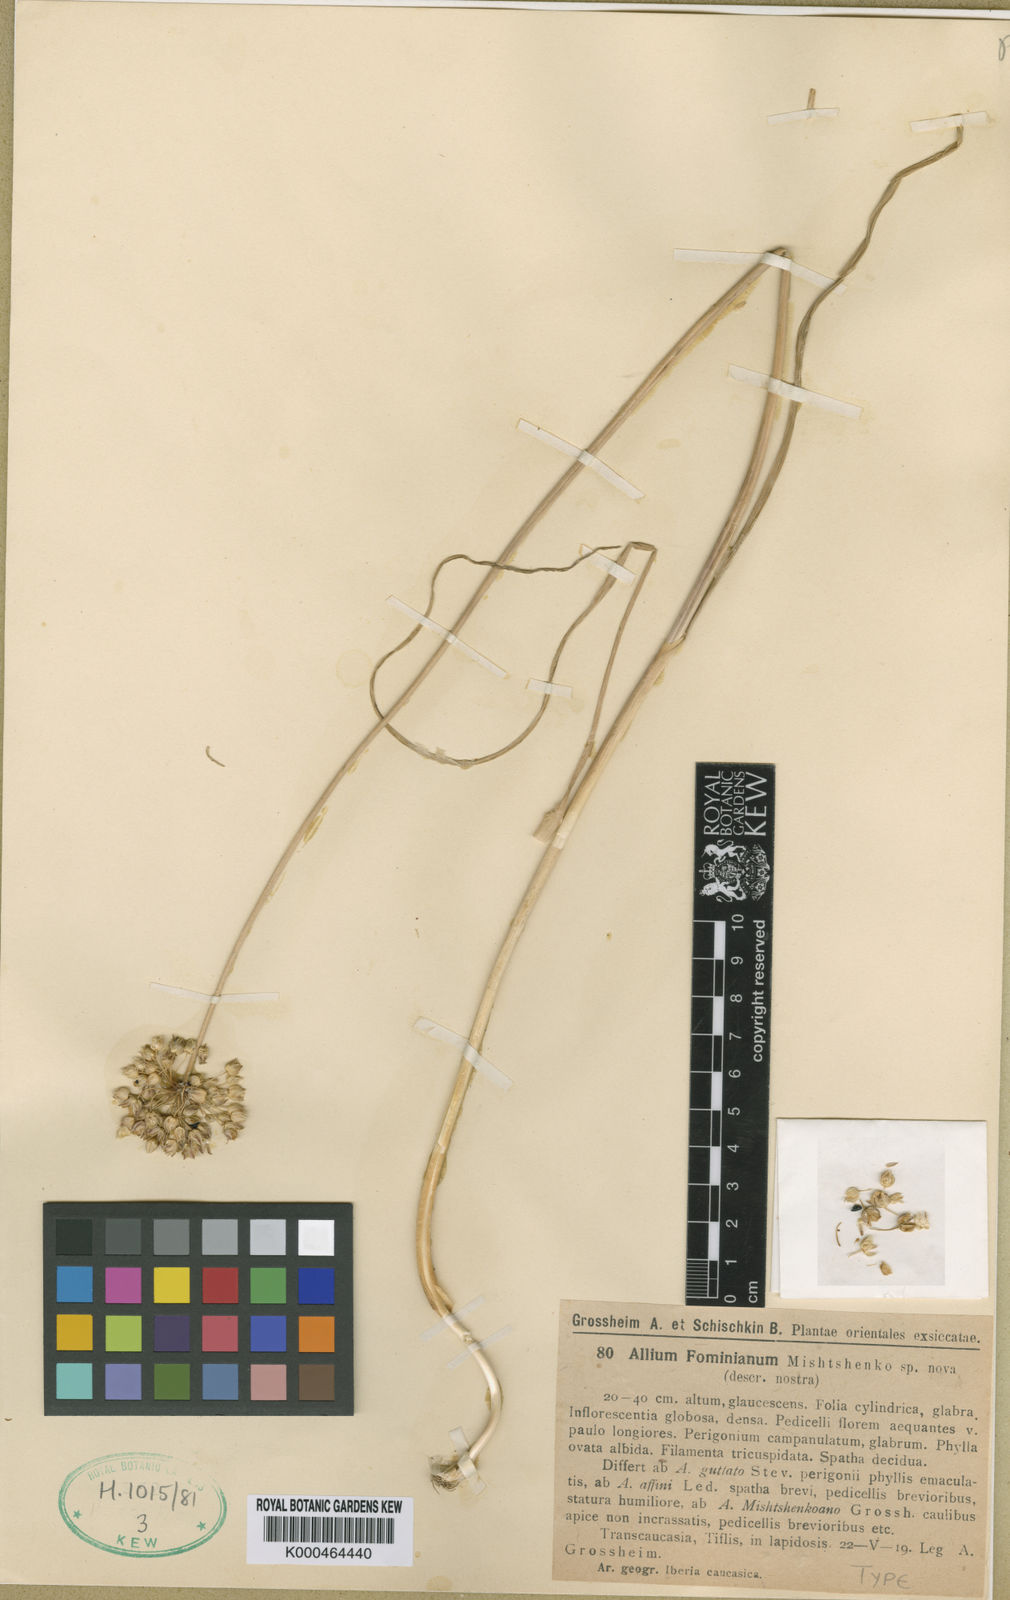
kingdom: Plantae
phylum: Tracheophyta
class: Liliopsida
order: Asparagales
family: Amaryllidaceae
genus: Allium
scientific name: Allium gramineum
